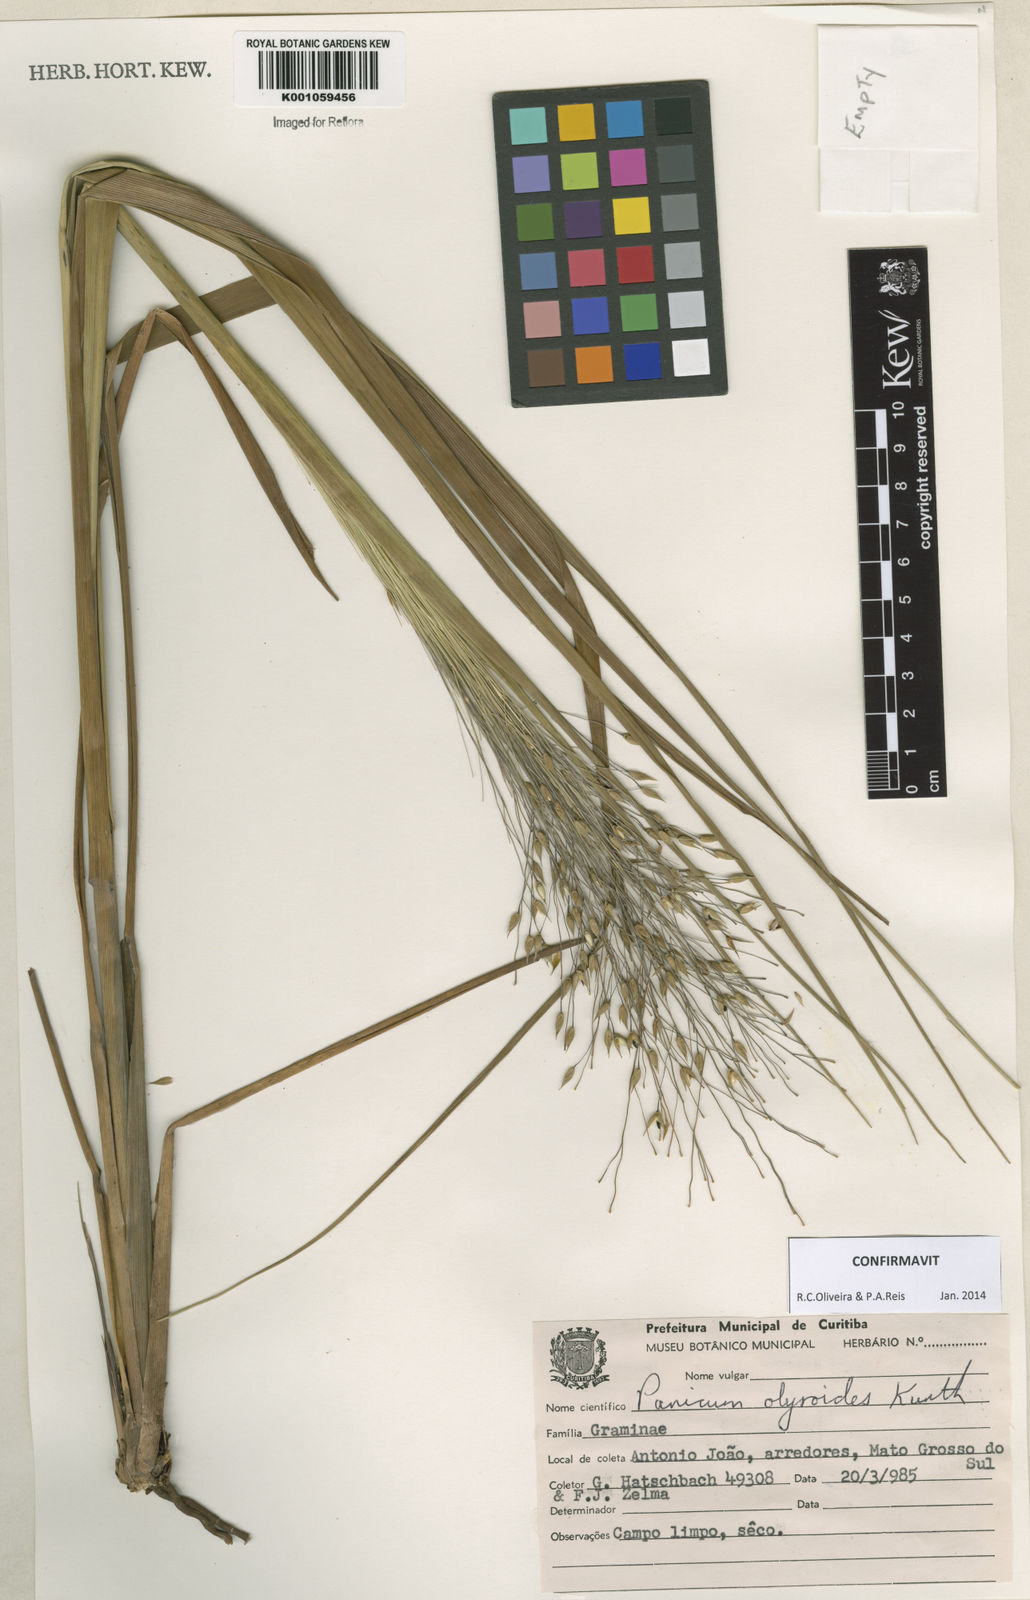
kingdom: Plantae
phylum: Tracheophyta
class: Liliopsida
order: Poales
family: Poaceae
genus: Panicum
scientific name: Panicum olyroides
